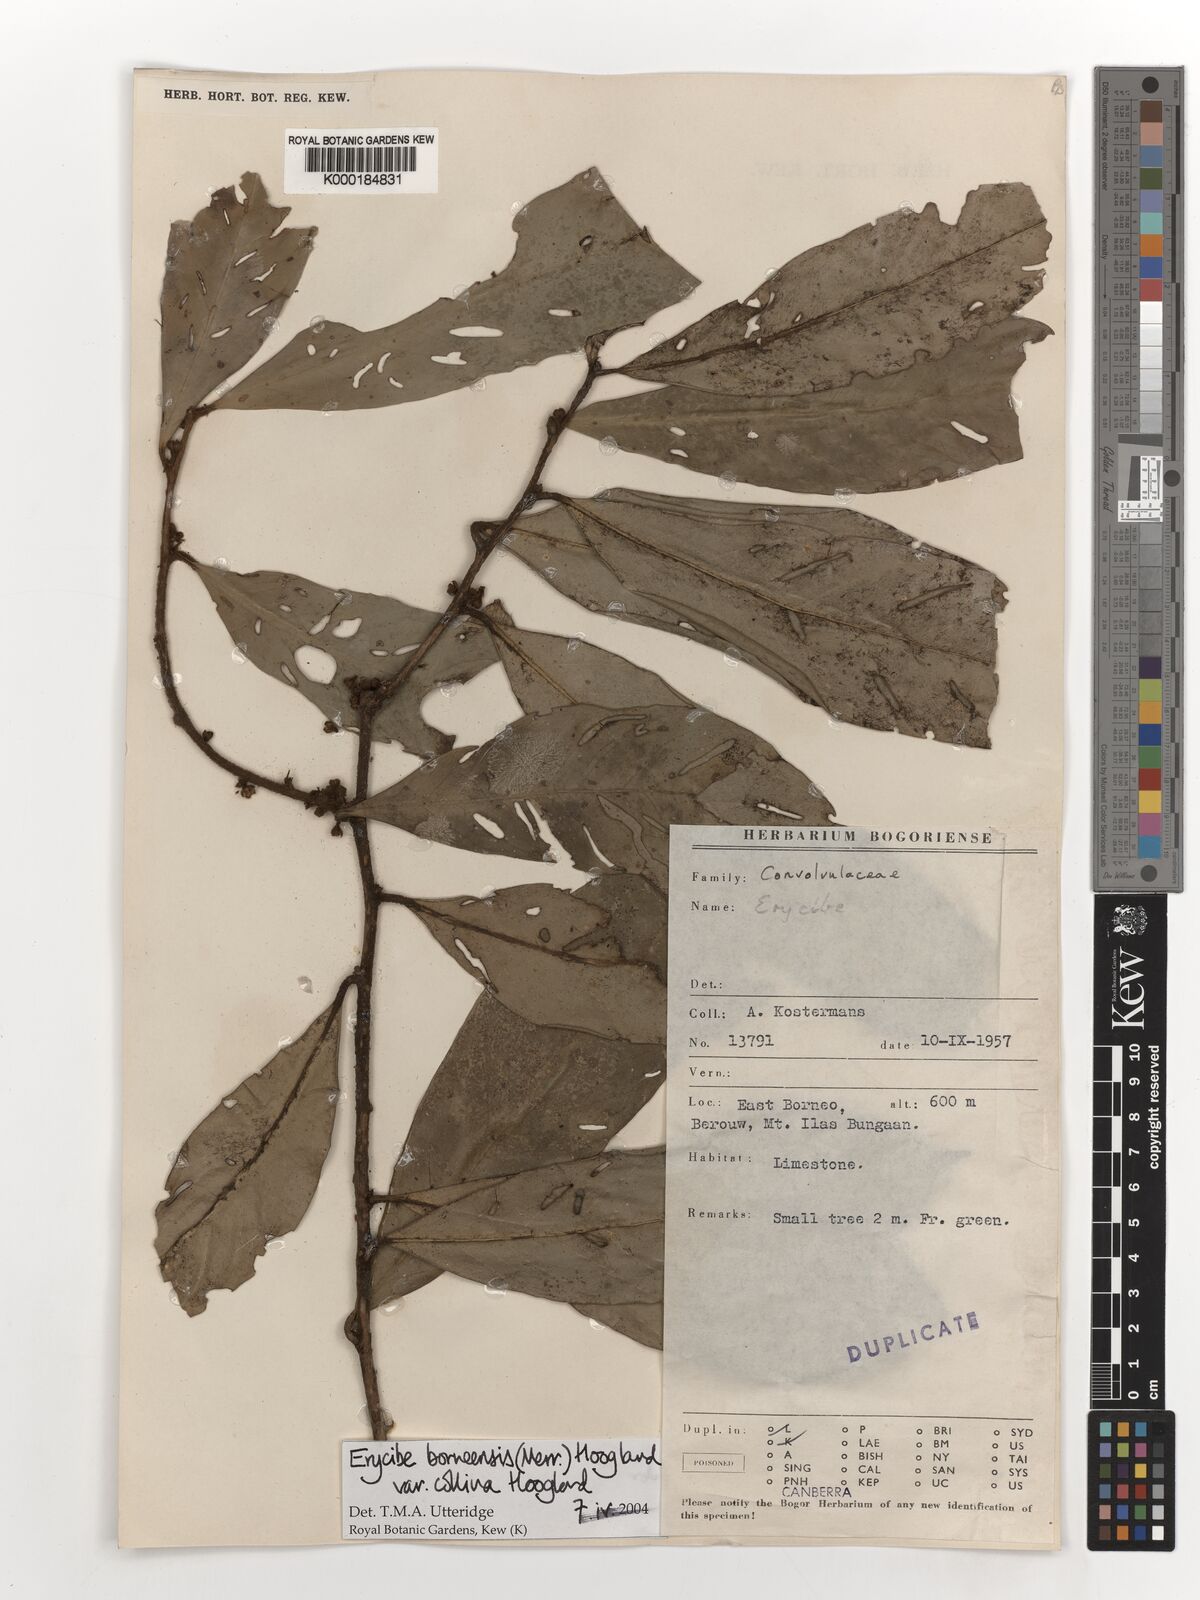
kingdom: Plantae
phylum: Tracheophyta
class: Magnoliopsida
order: Solanales
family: Convolvulaceae
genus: Erycibe
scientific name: Erycibe borneensis
